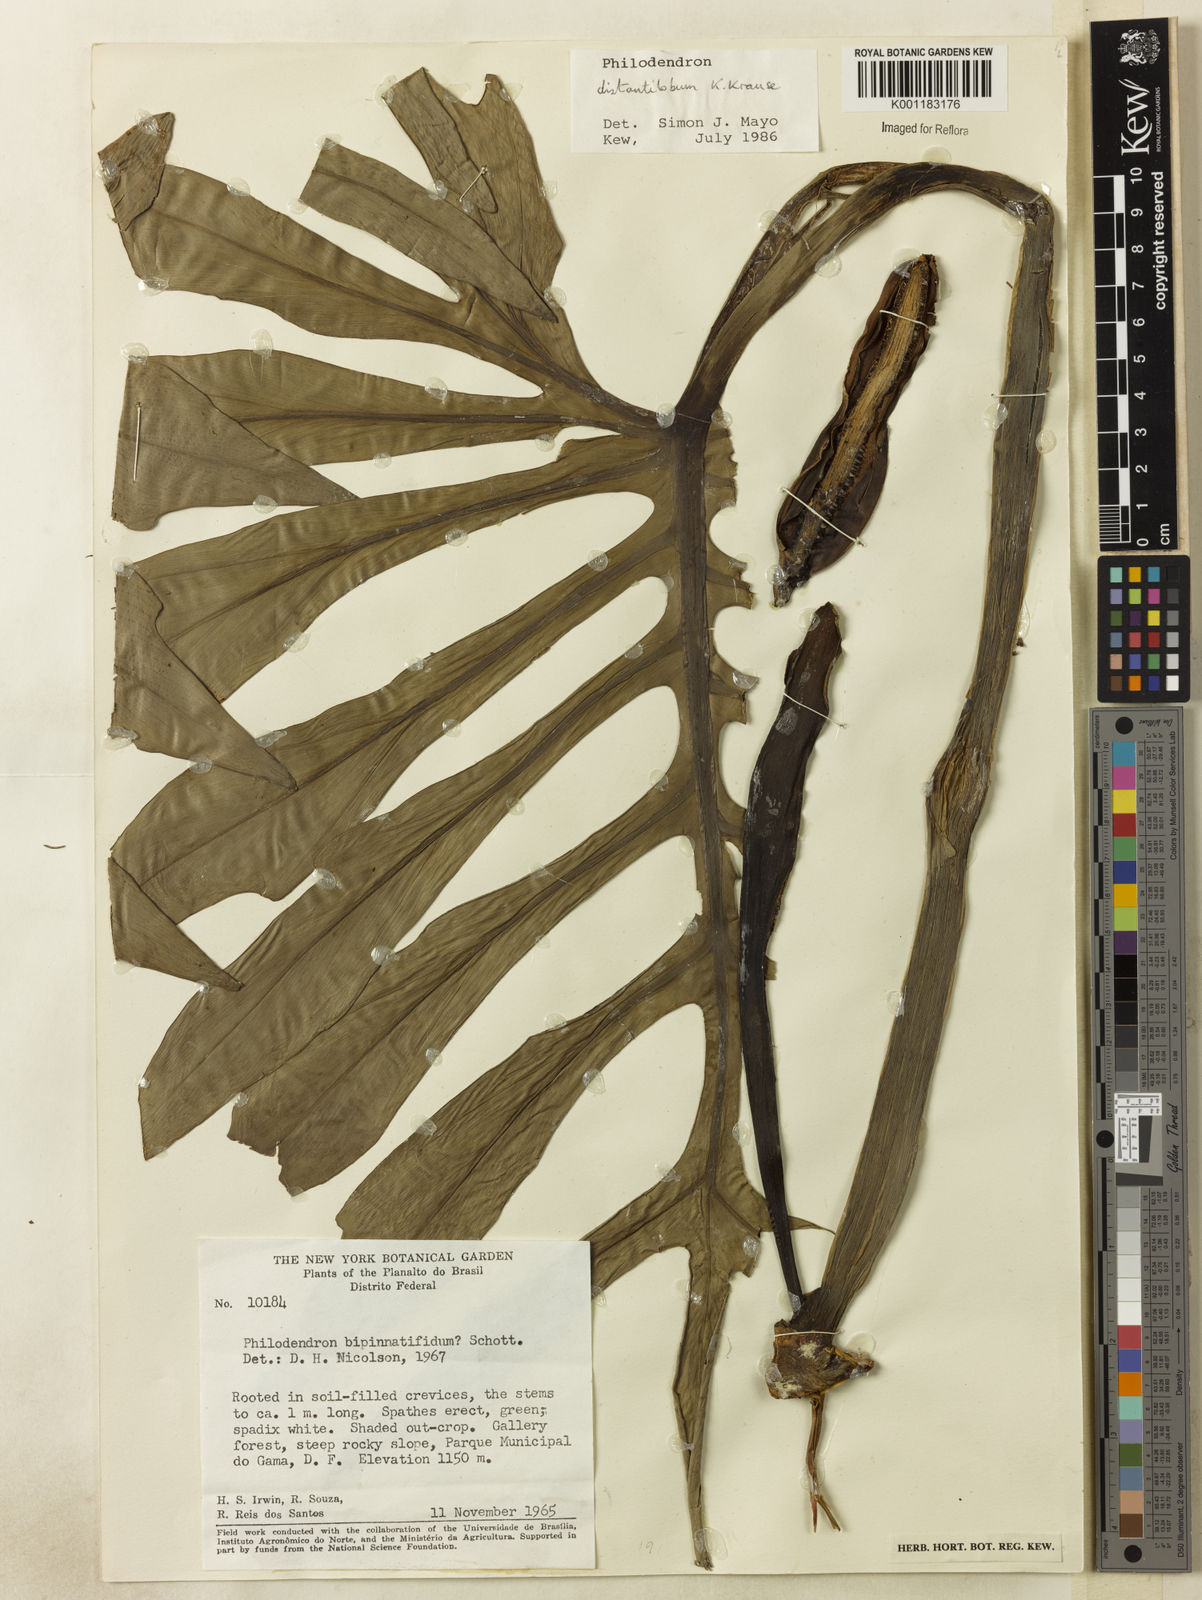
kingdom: Plantae
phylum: Tracheophyta
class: Liliopsida
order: Alismatales
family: Araceae
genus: Philodendron
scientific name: Philodendron distantilobum
